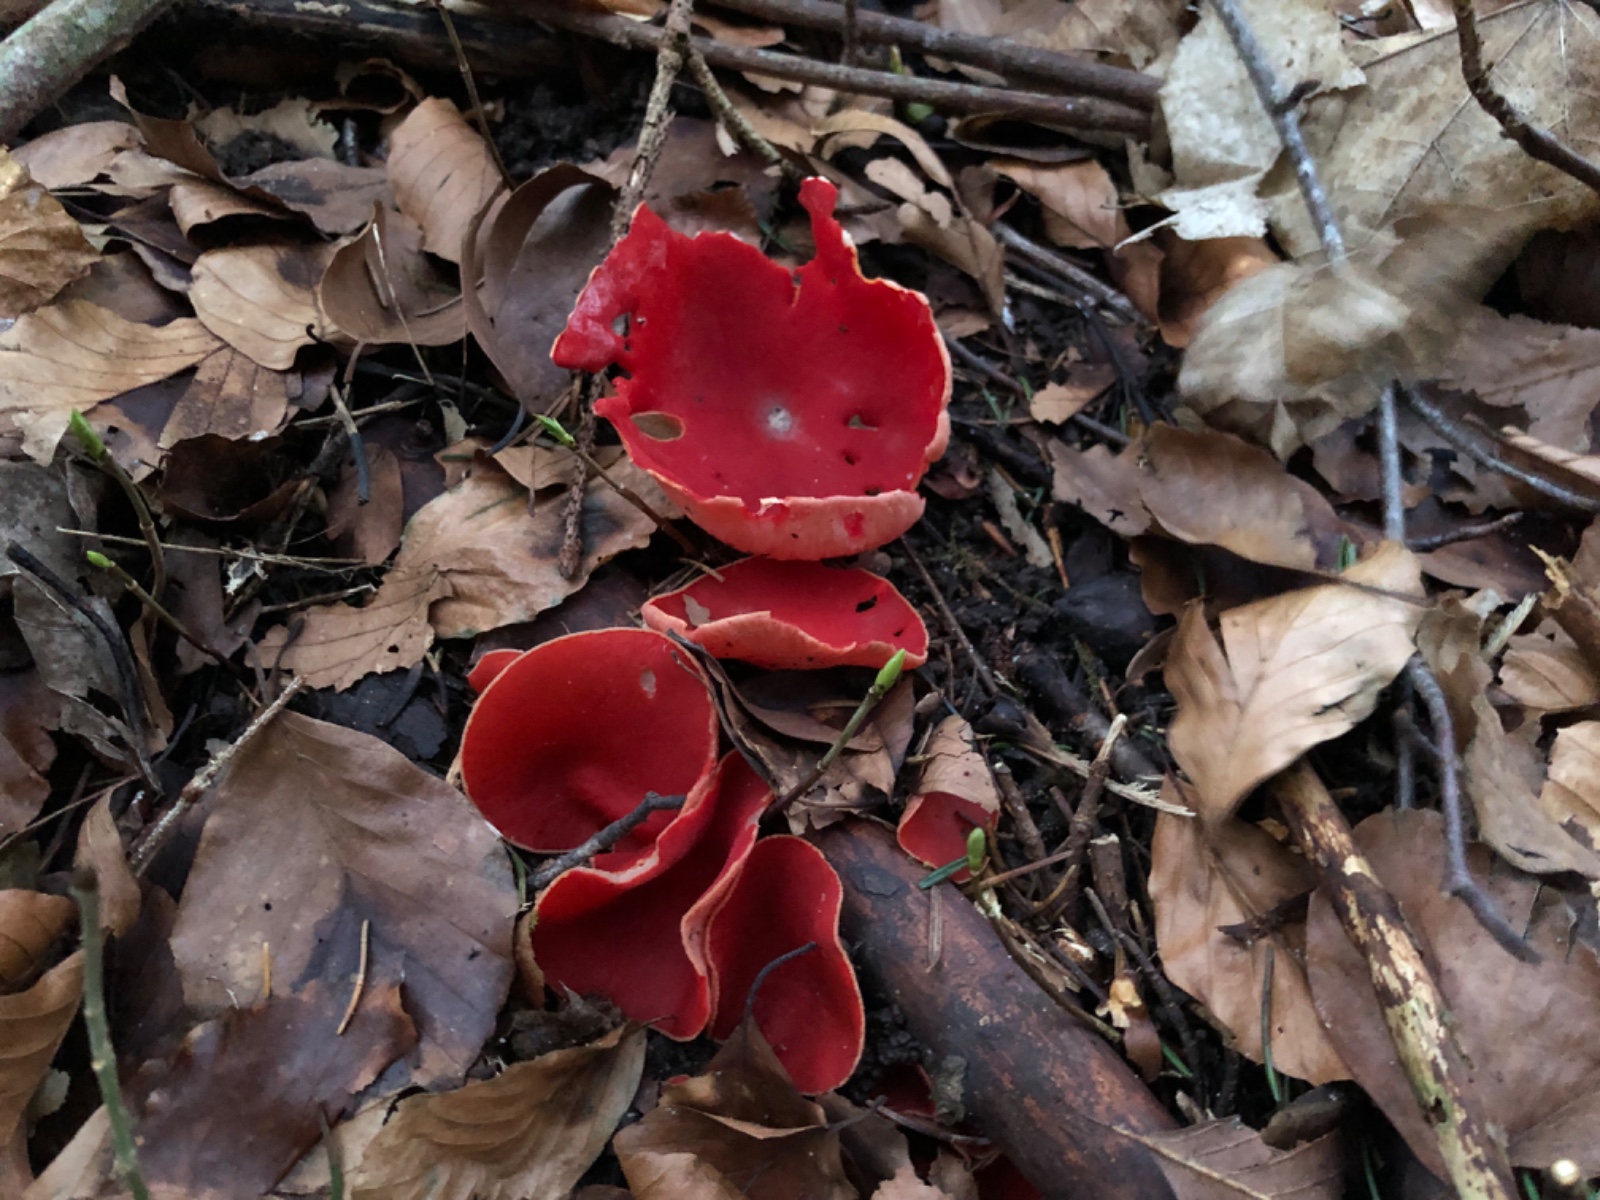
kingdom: Fungi
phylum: Ascomycota
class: Pezizomycetes
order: Pezizales
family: Sarcoscyphaceae
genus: Sarcoscypha
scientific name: Sarcoscypha austriaca
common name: krølhåret pragtbæger
